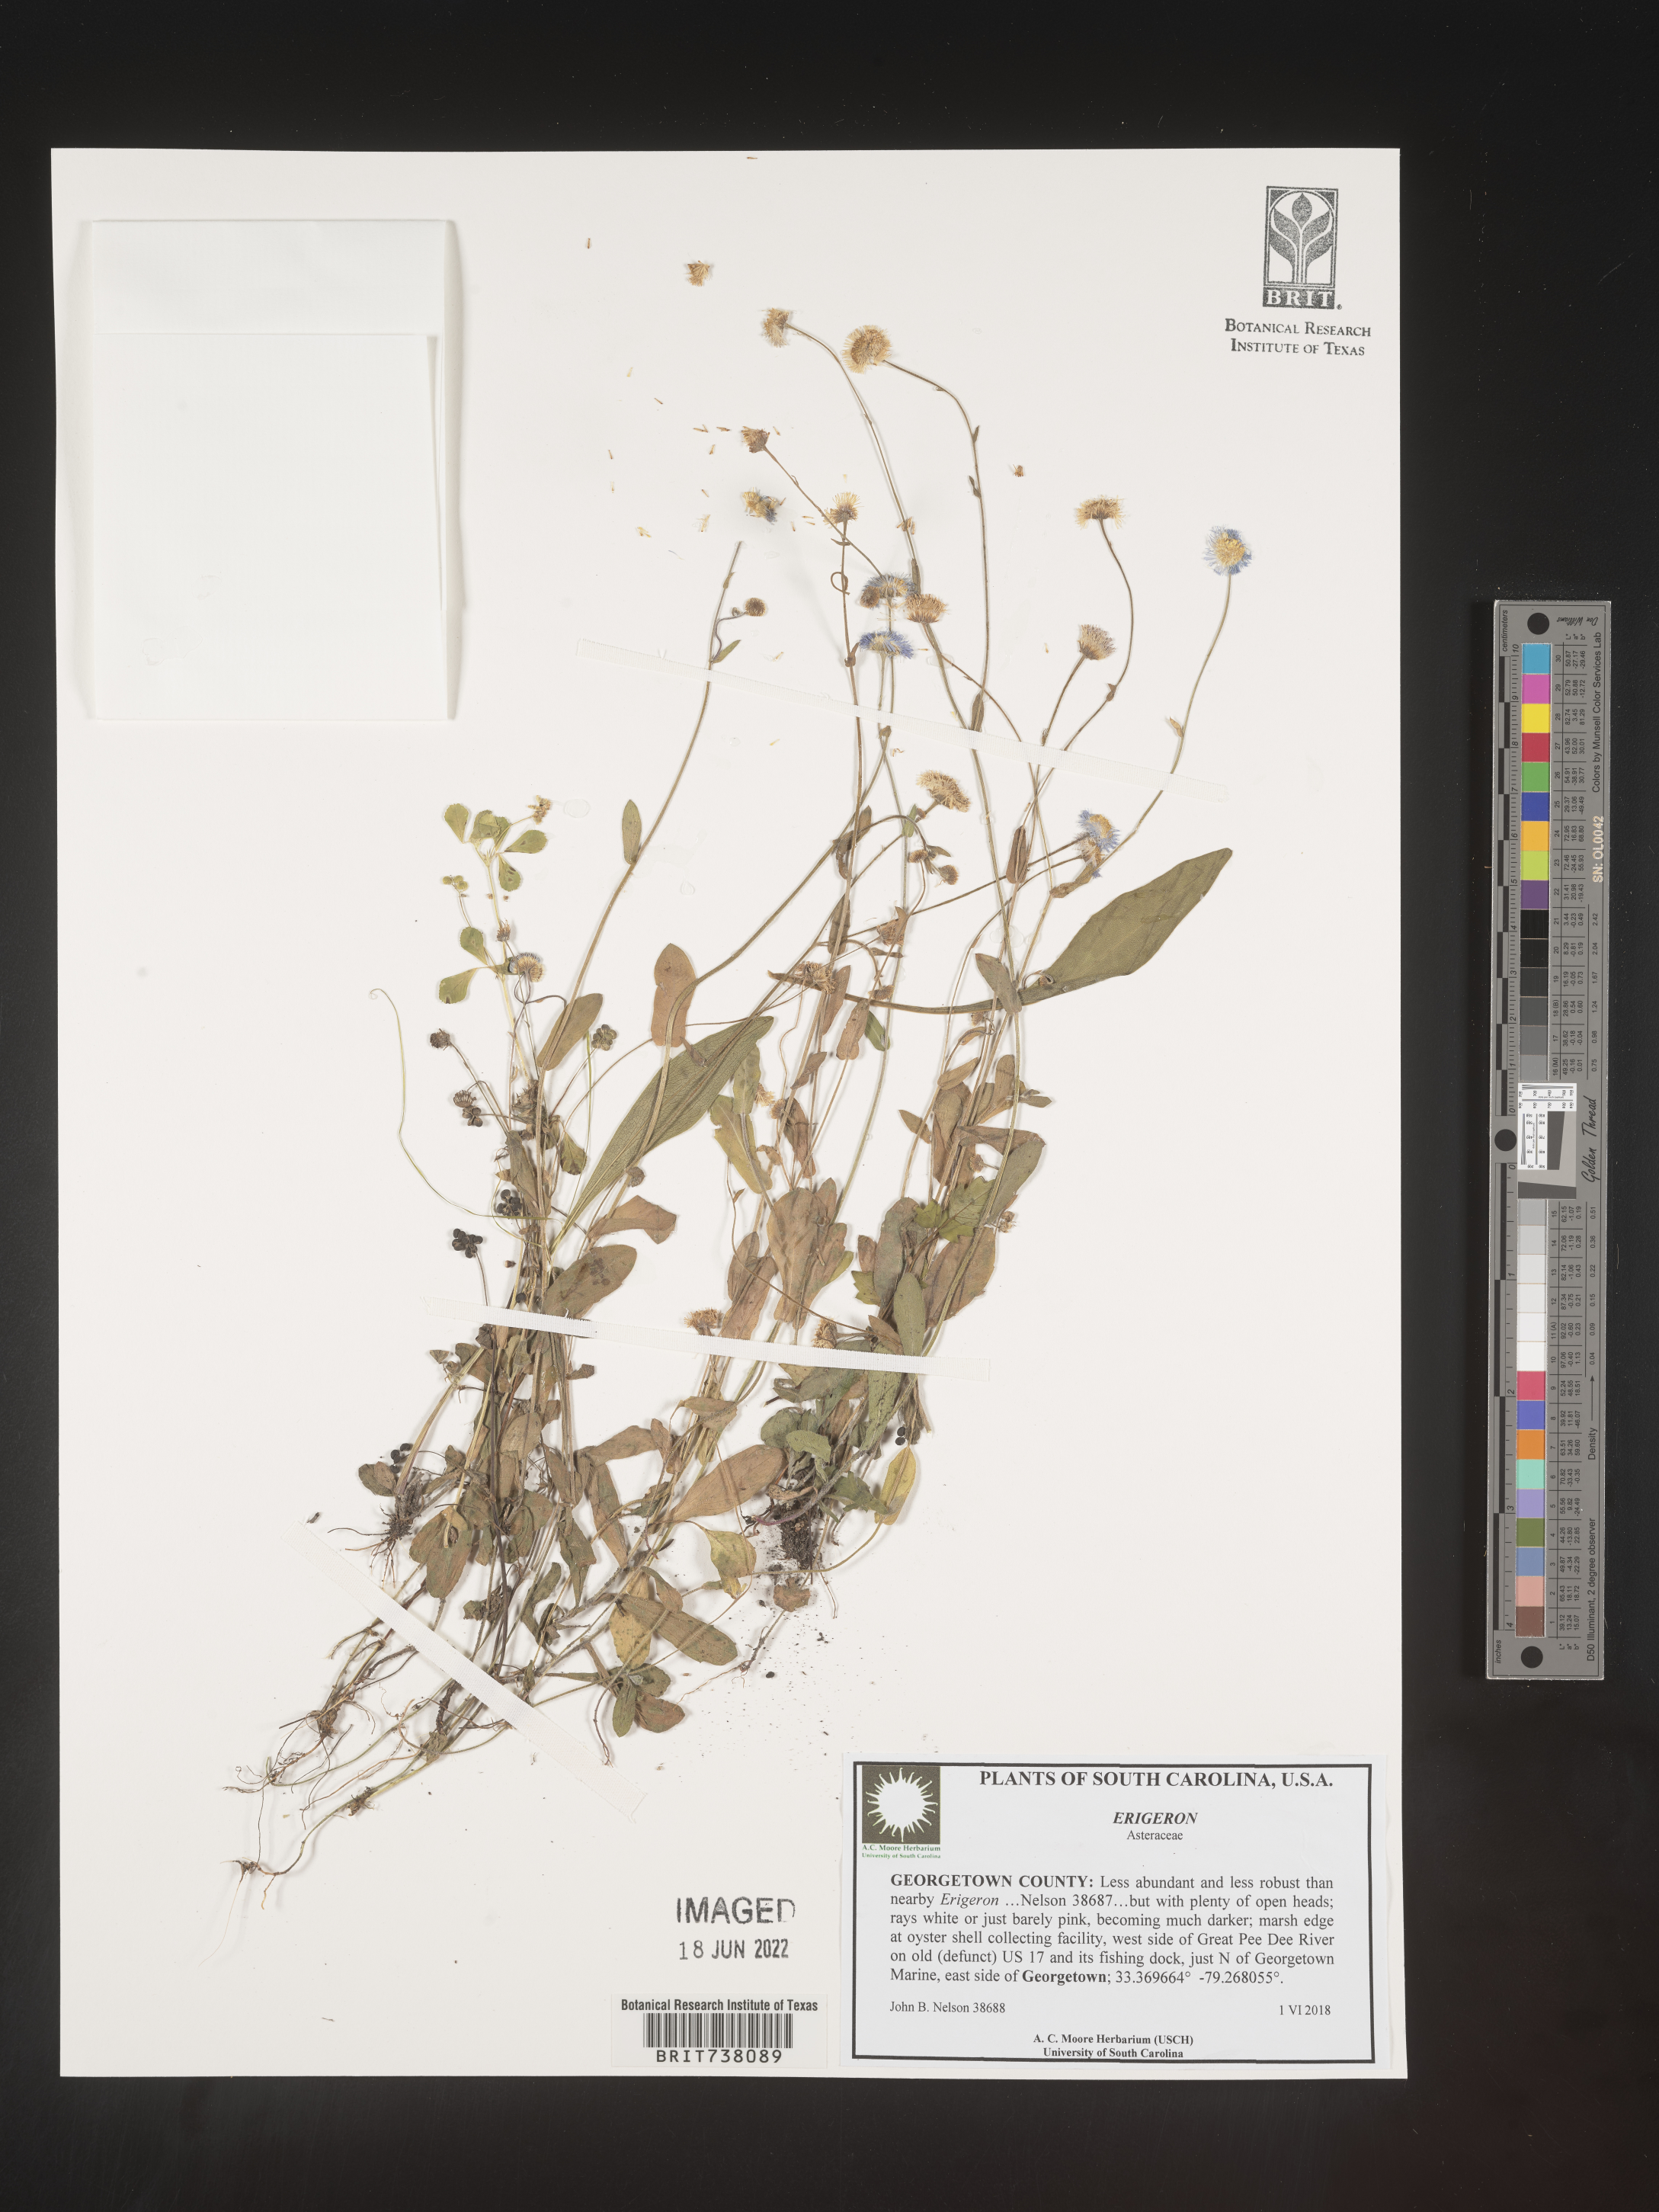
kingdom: Plantae
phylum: Tracheophyta
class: Magnoliopsida
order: Asterales
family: Asteraceae
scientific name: Asteraceae
